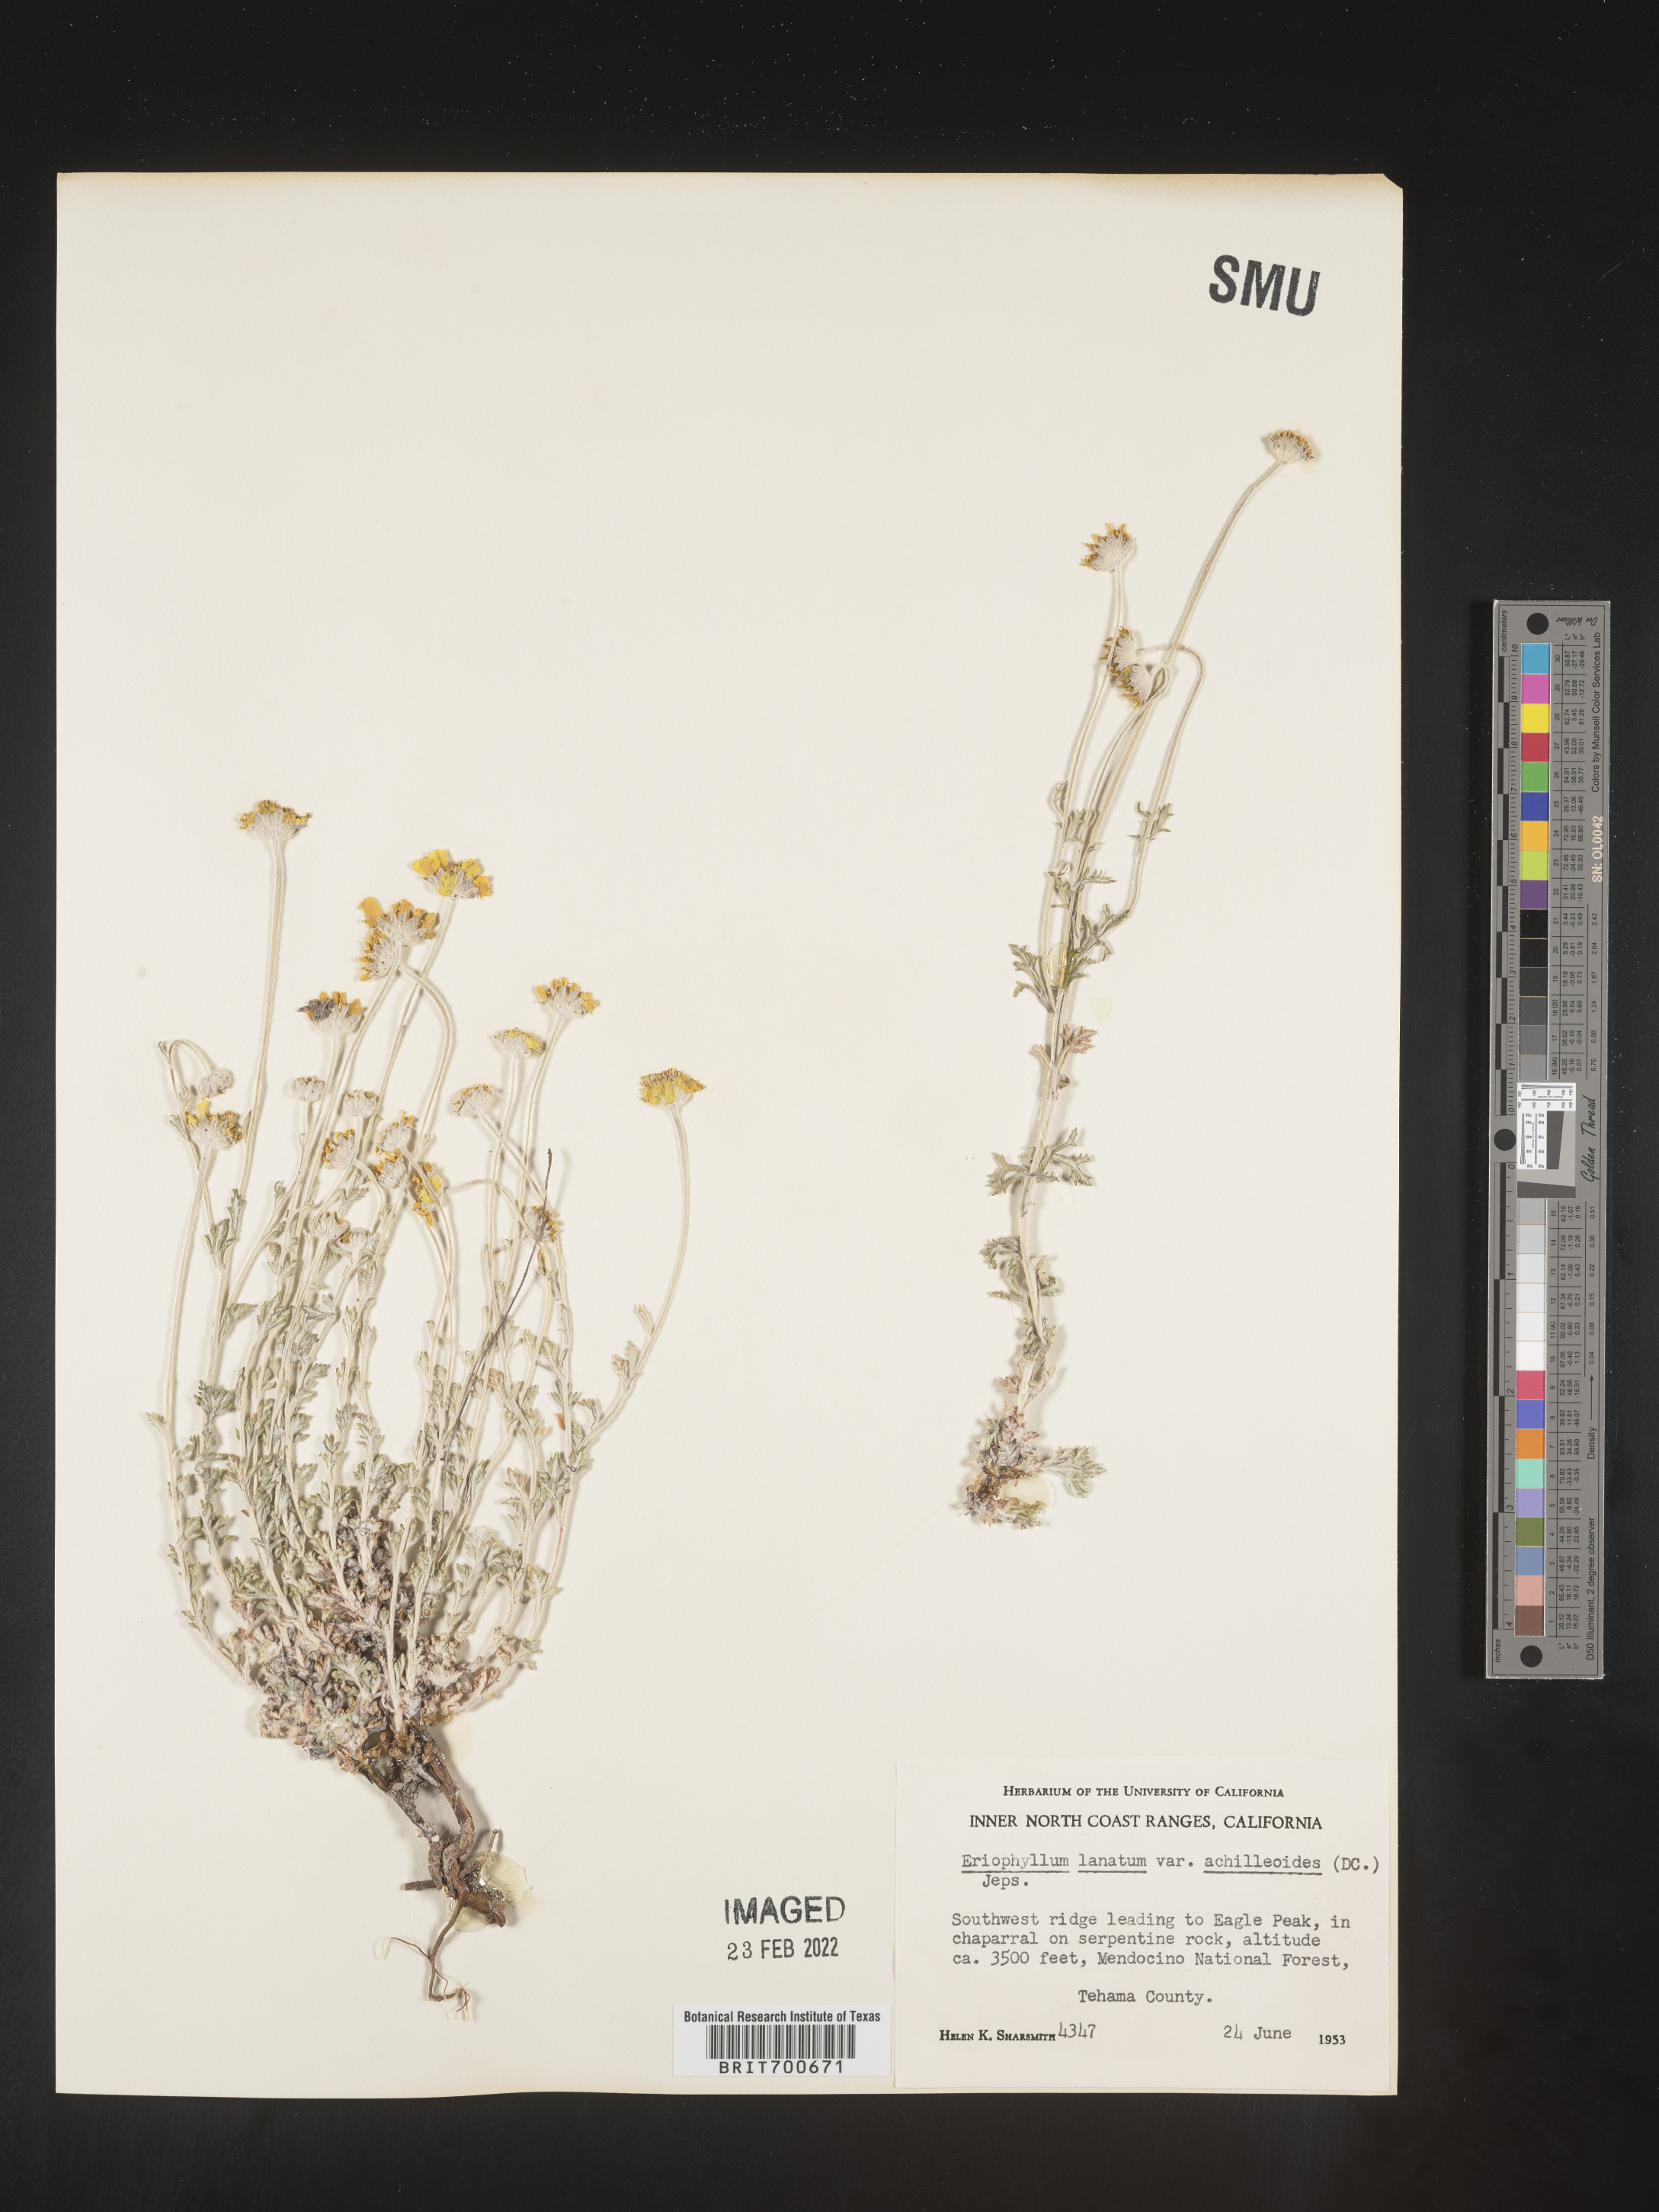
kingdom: Plantae
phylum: Tracheophyta
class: Magnoliopsida
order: Asterales
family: Asteraceae
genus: Eriophyllum
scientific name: Eriophyllum lanatum
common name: Common woolly-sunflower
